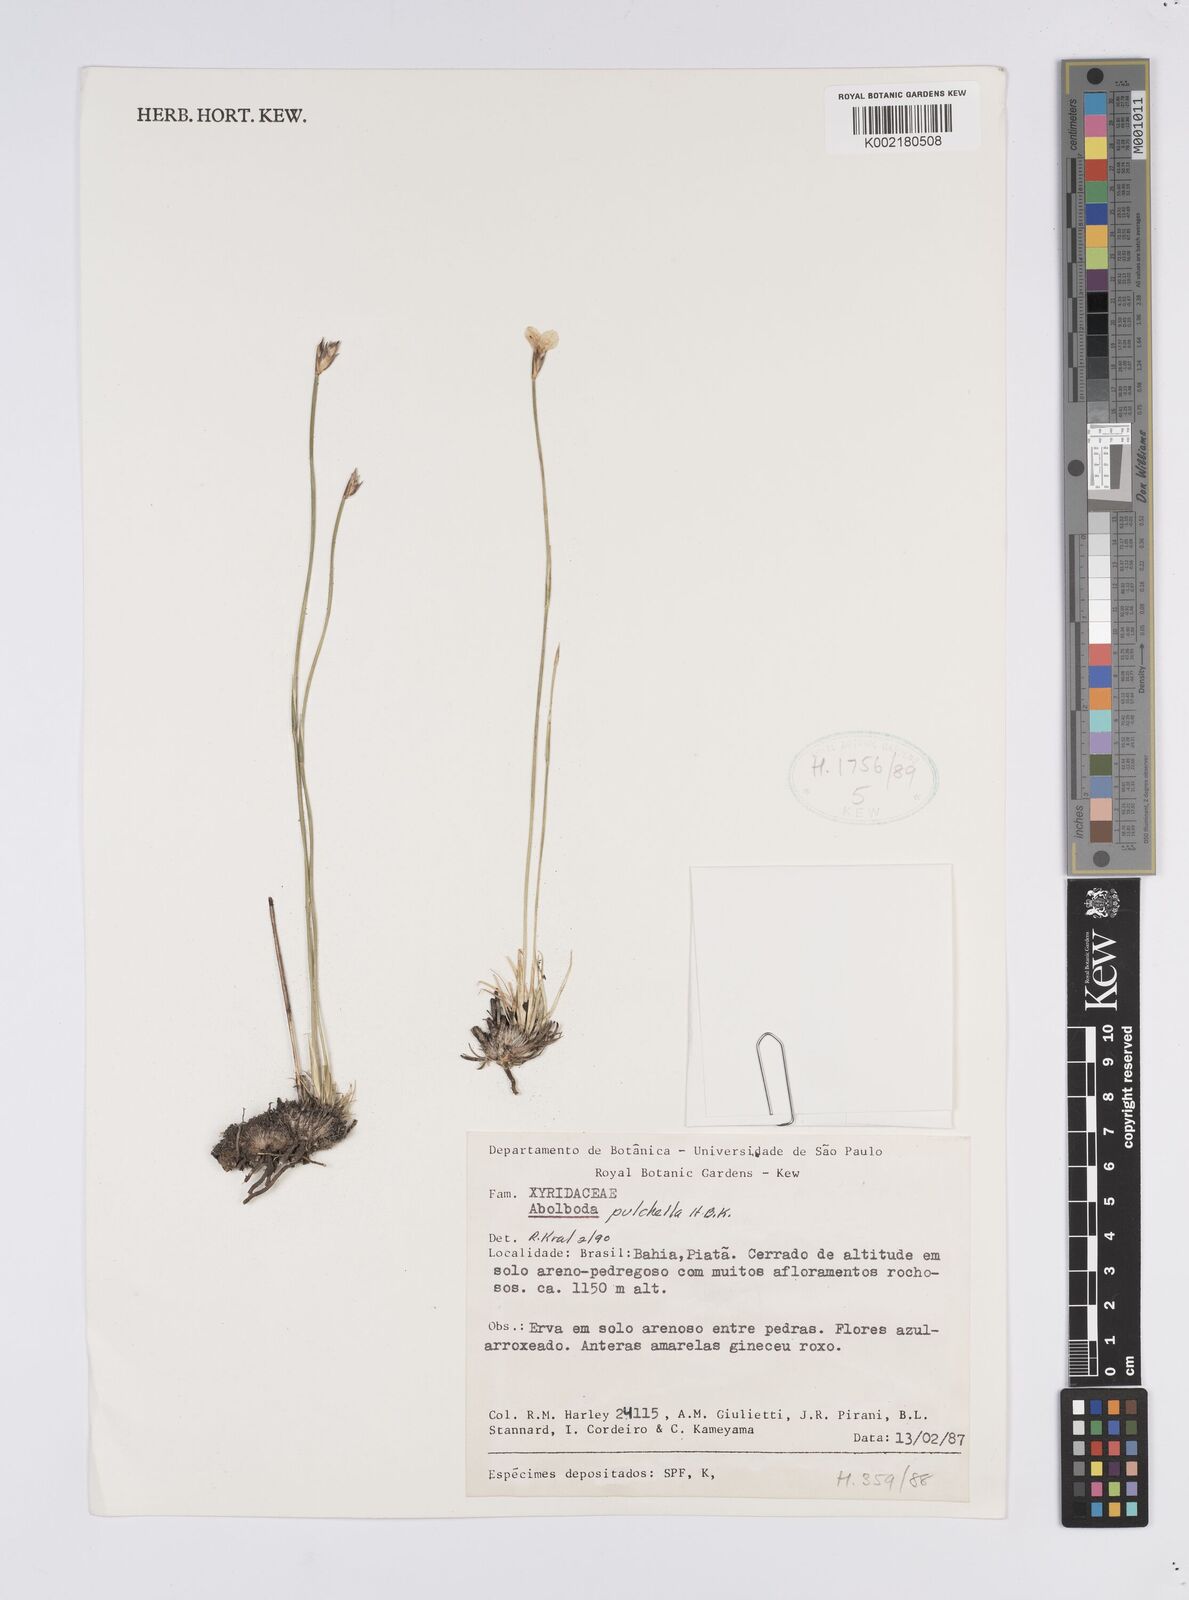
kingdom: Plantae
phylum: Tracheophyta
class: Liliopsida
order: Poales
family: Xyridaceae
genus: Abolboda
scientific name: Abolboda pulchella
